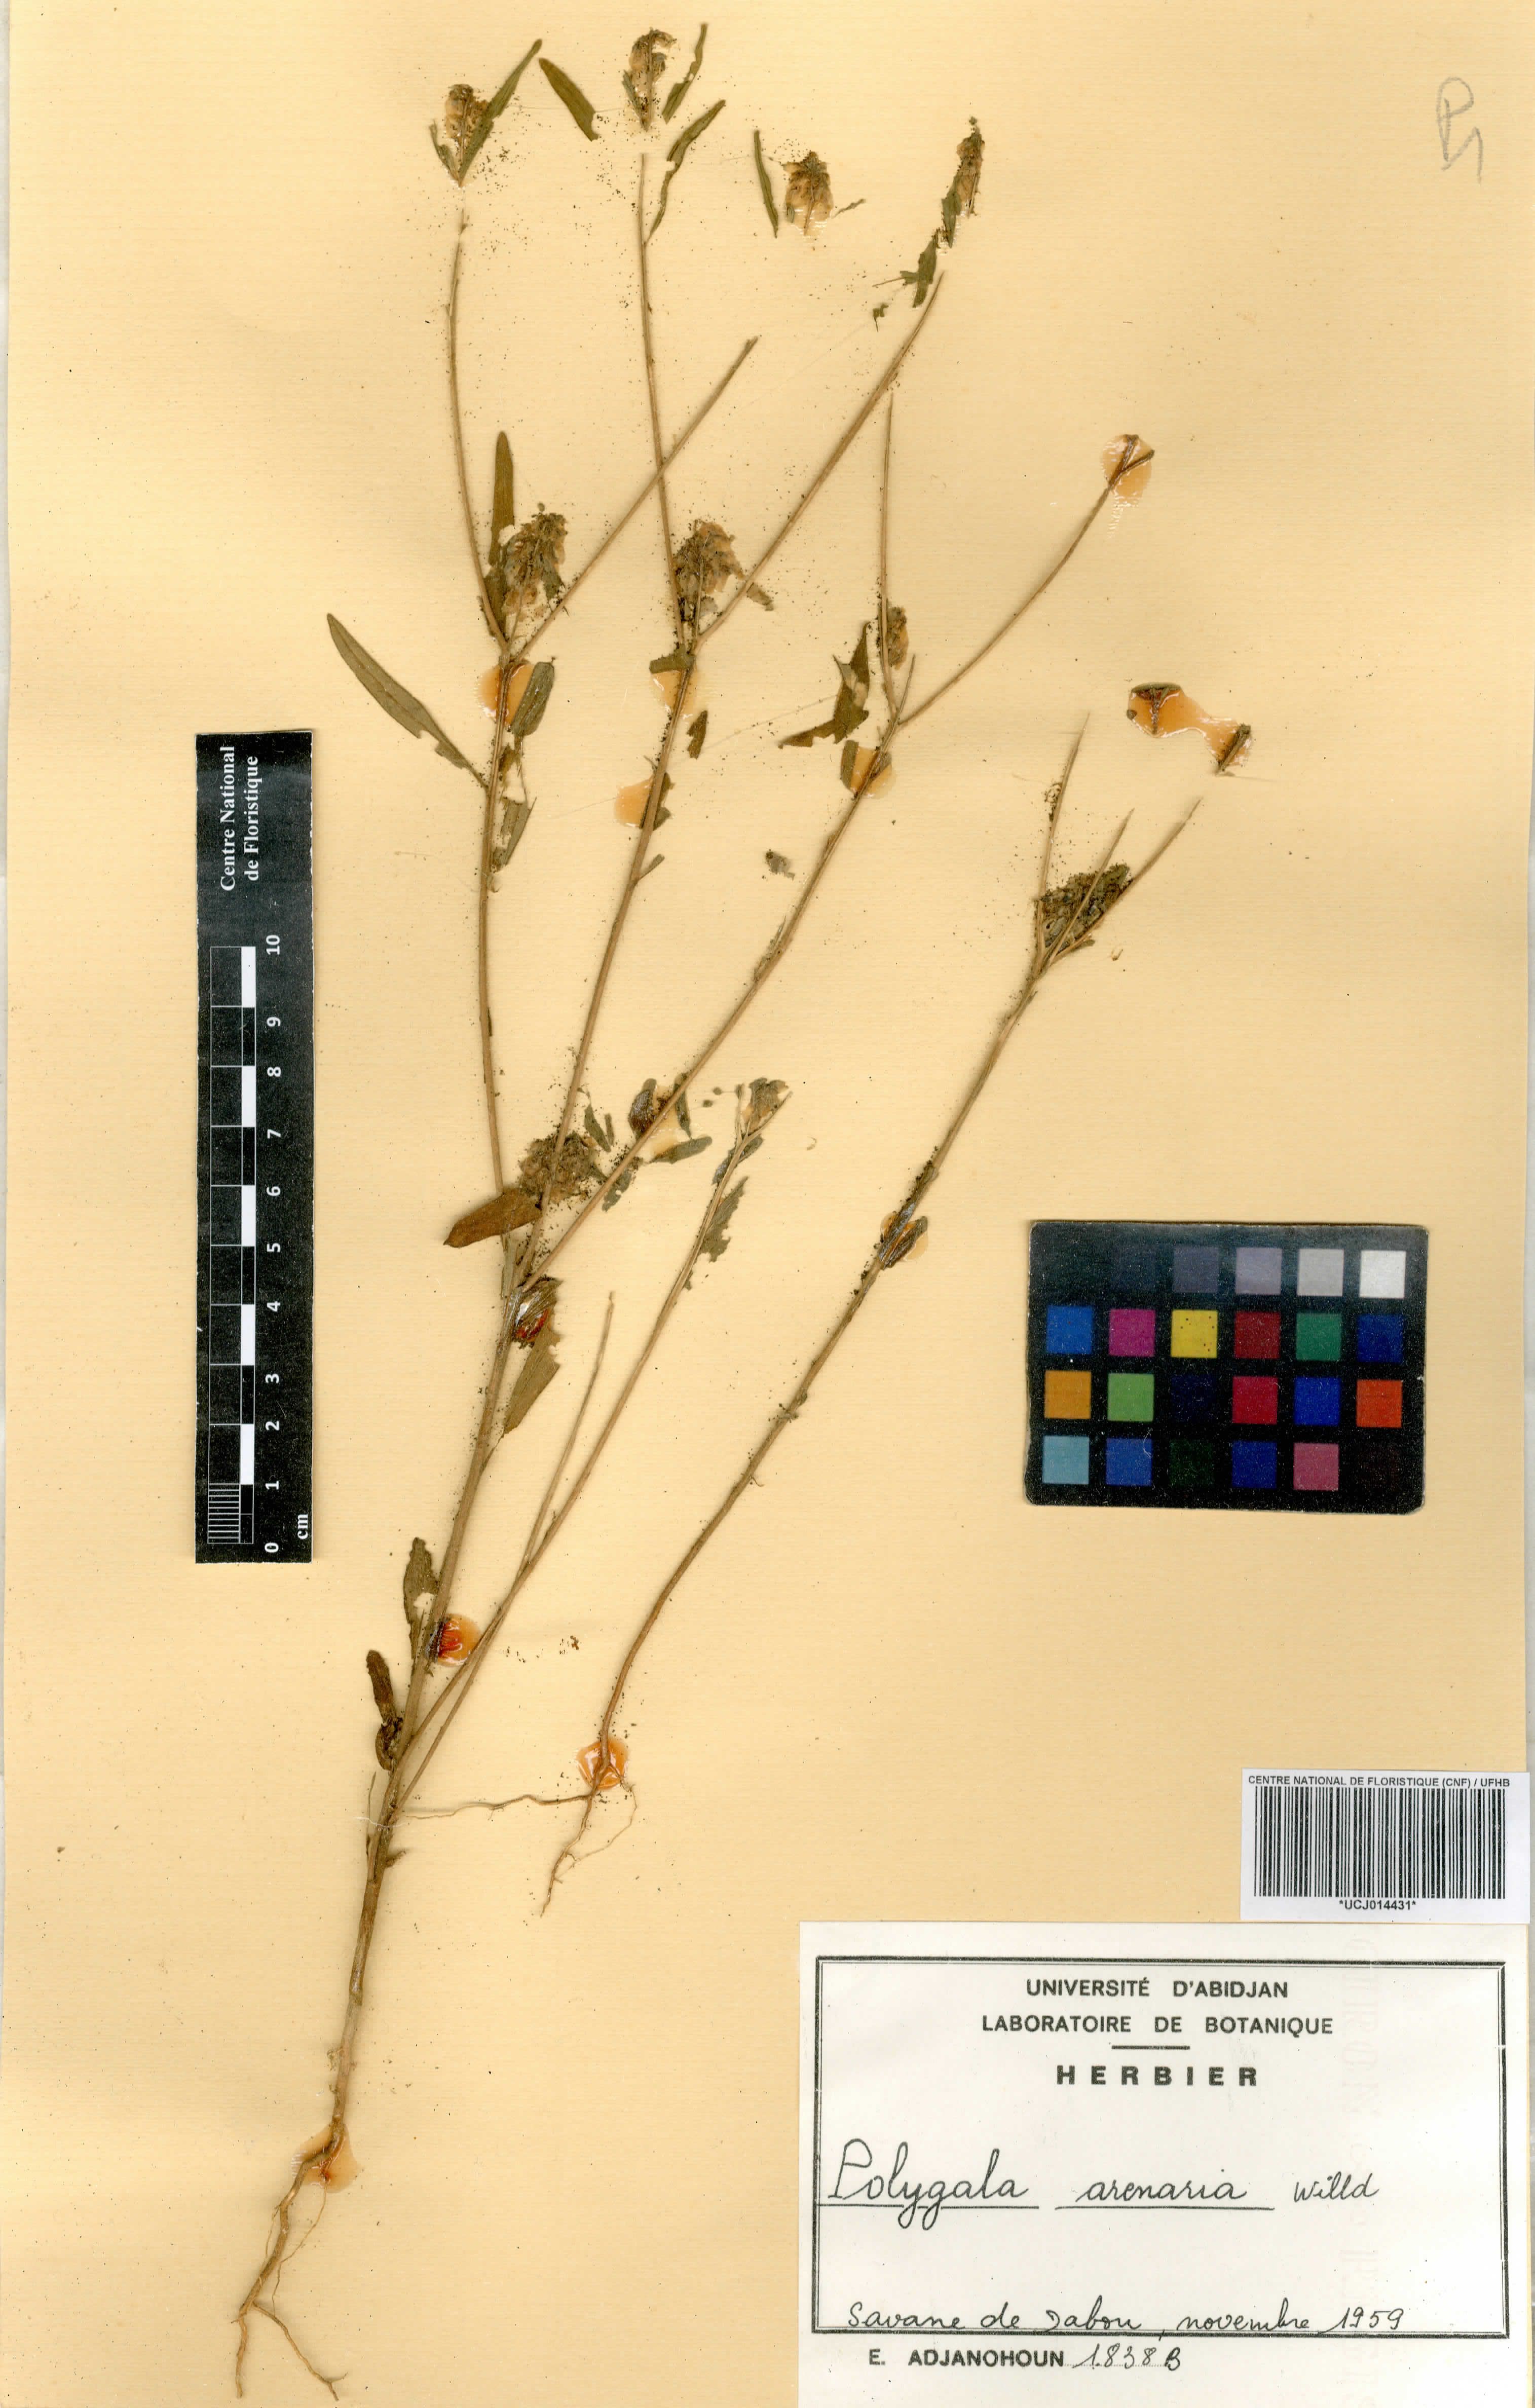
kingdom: Plantae
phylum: Tracheophyta
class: Magnoliopsida
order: Fabales
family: Polygalaceae
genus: Polygala
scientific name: Polygala arenaria
